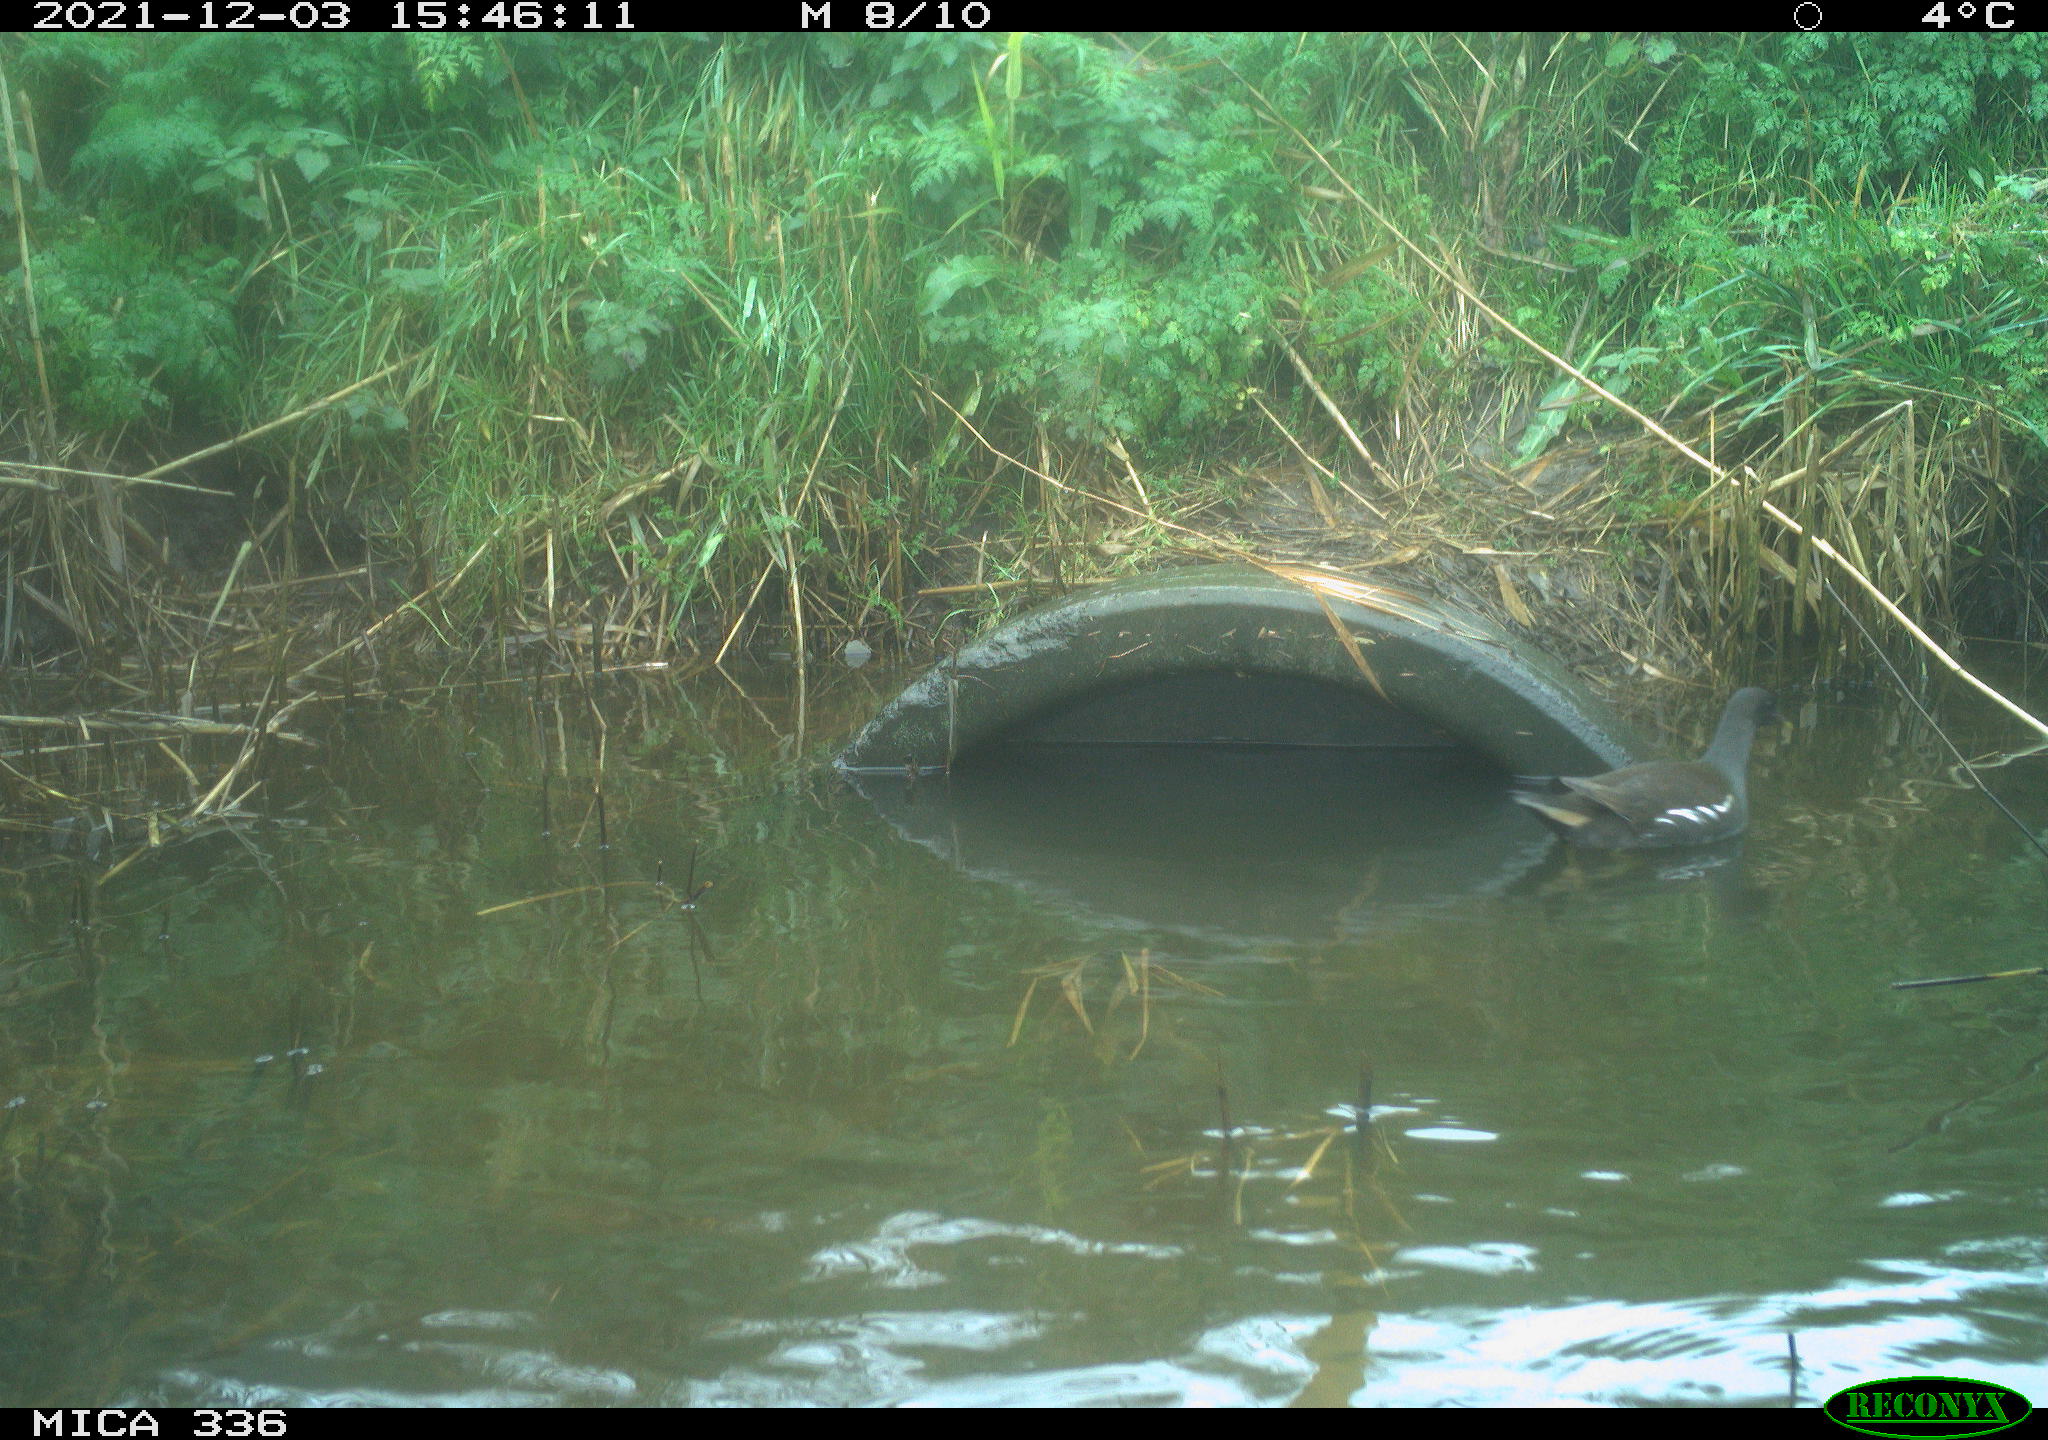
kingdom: Animalia
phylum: Chordata
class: Aves
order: Gruiformes
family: Rallidae
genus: Gallinula
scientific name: Gallinula chloropus
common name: Common moorhen
